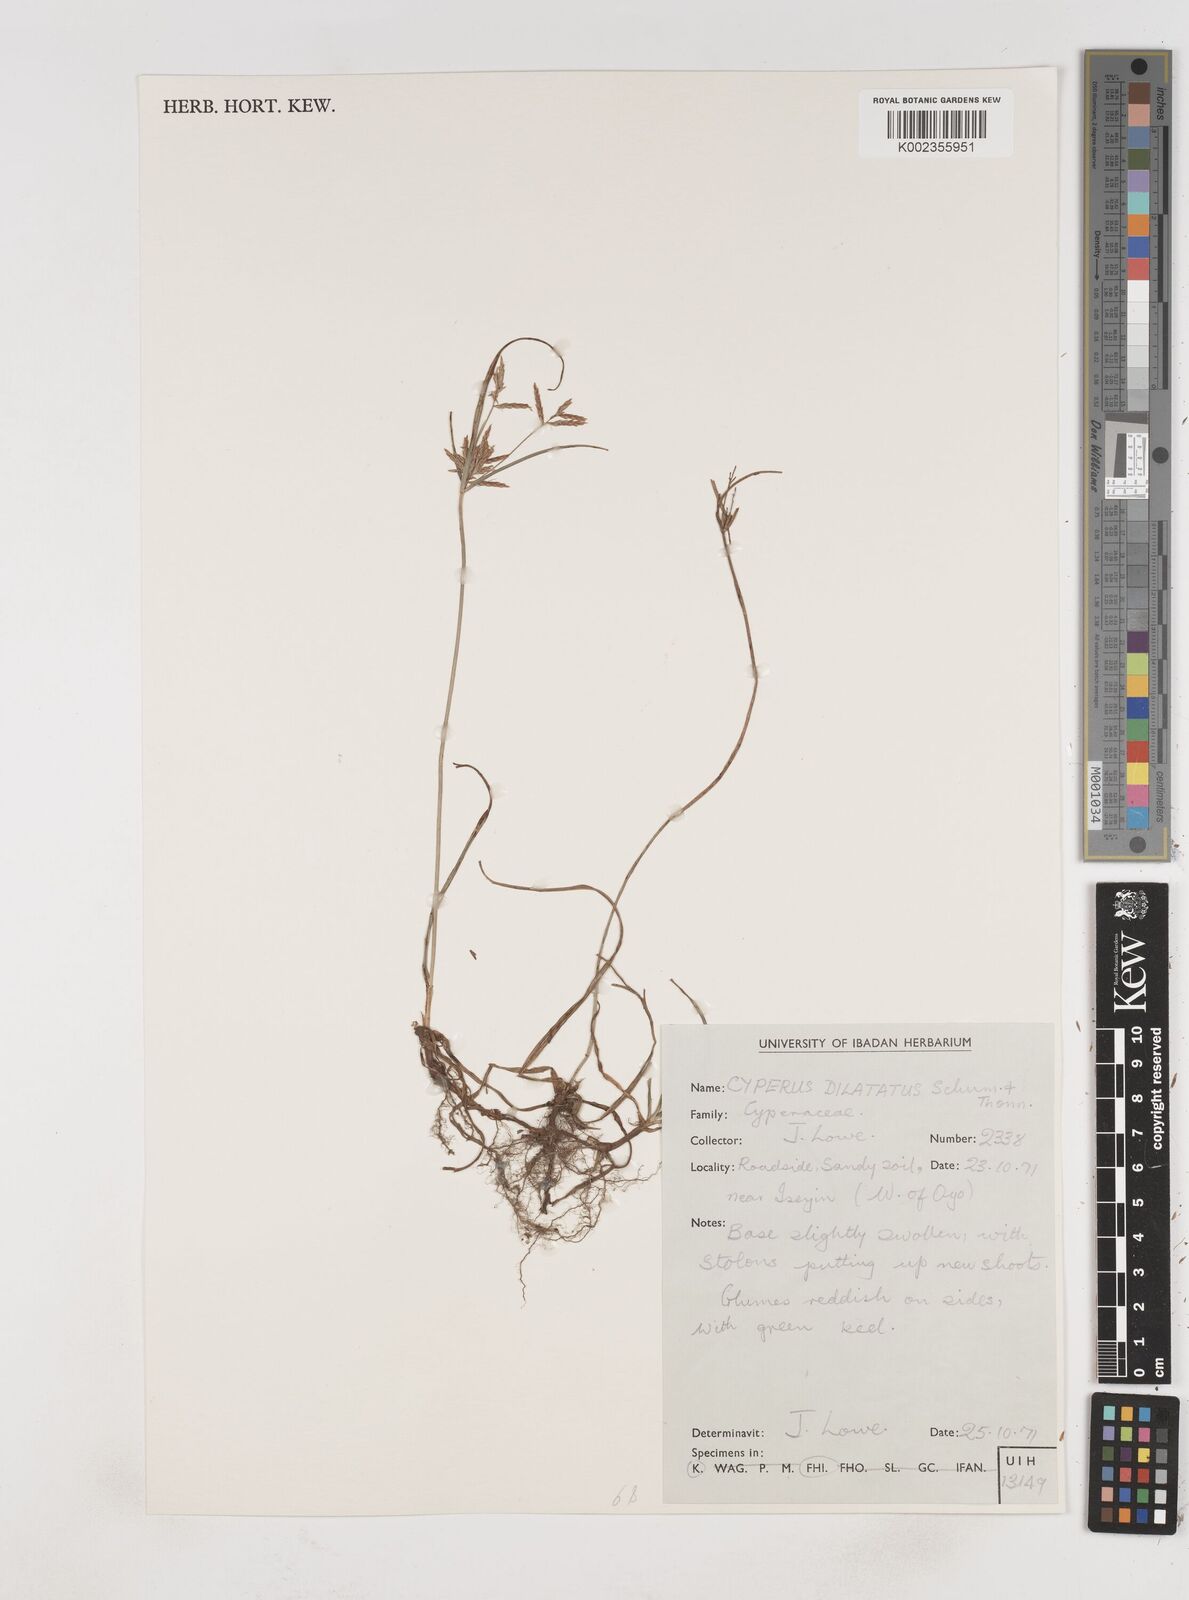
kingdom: Plantae
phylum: Tracheophyta
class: Liliopsida
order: Poales
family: Cyperaceae
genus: Cyperus
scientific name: Cyperus dilatatus
